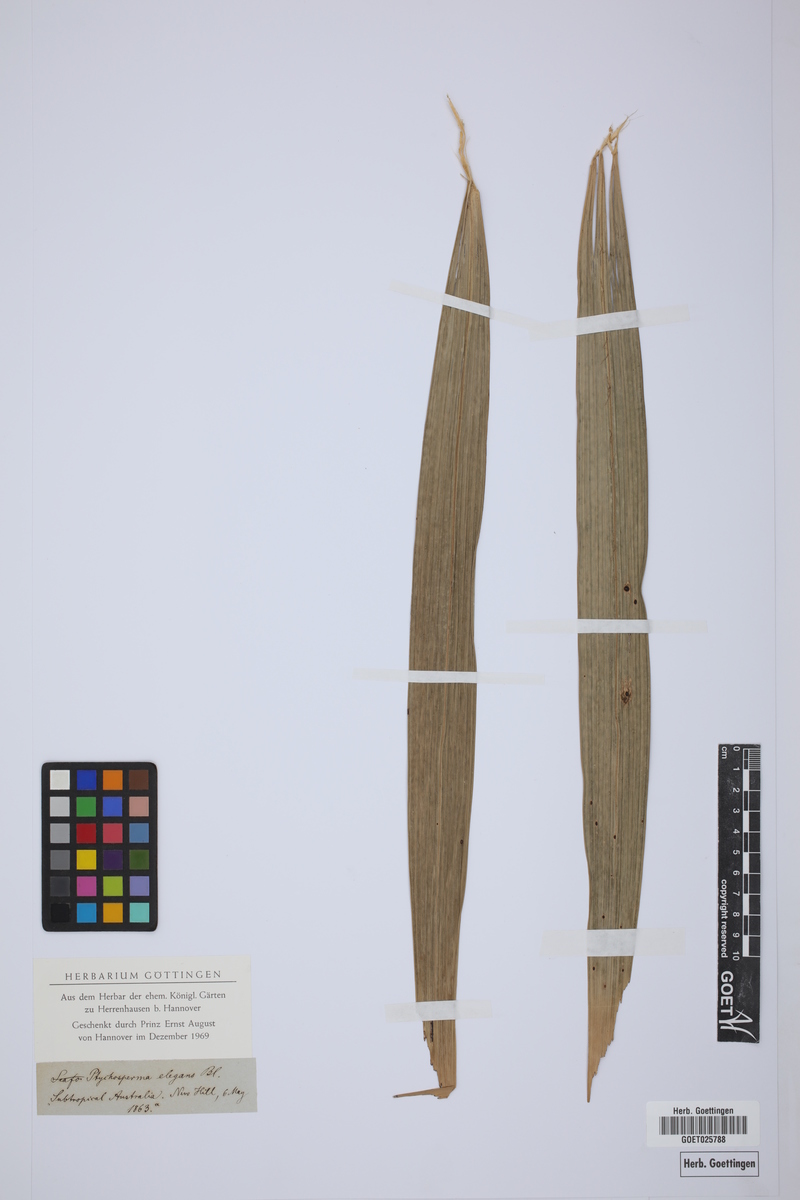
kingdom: Plantae
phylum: Tracheophyta
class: Liliopsida
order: Arecales
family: Arecaceae
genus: Ptychosperma
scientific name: Ptychosperma elegans
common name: Alexander palm
